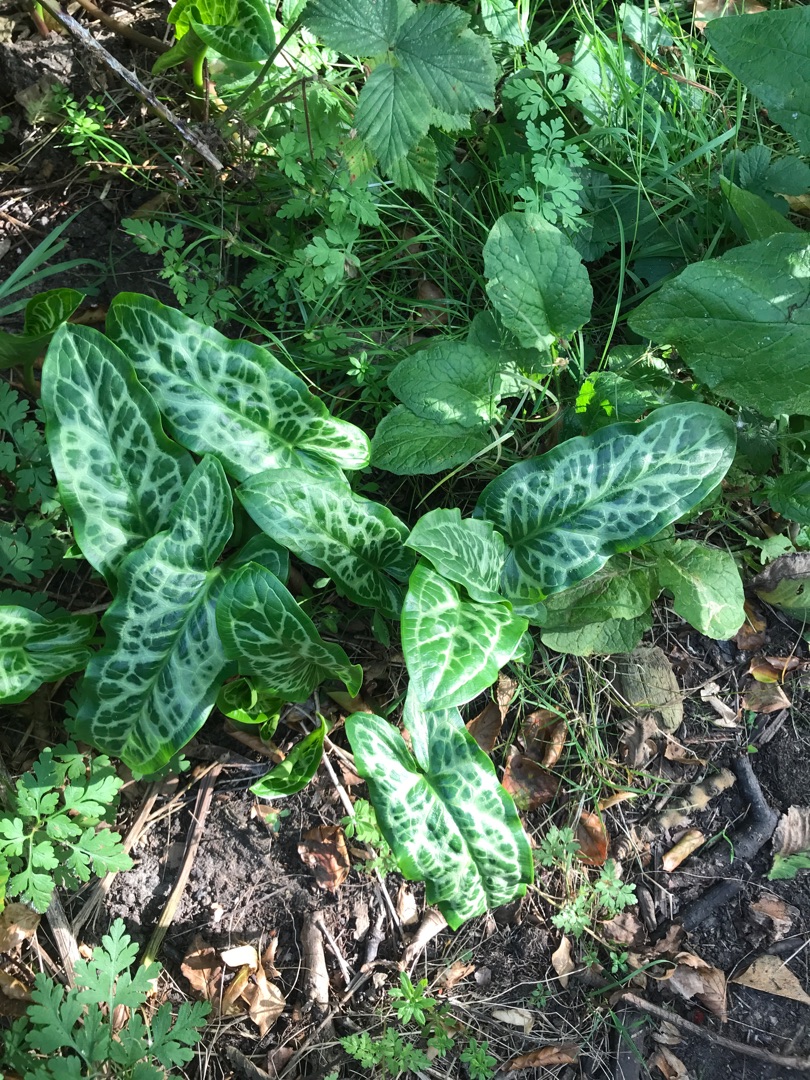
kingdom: Plantae
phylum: Tracheophyta
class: Liliopsida
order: Alismatales
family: Araceae
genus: Arum
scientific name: Arum italicum
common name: Italiensk arum
